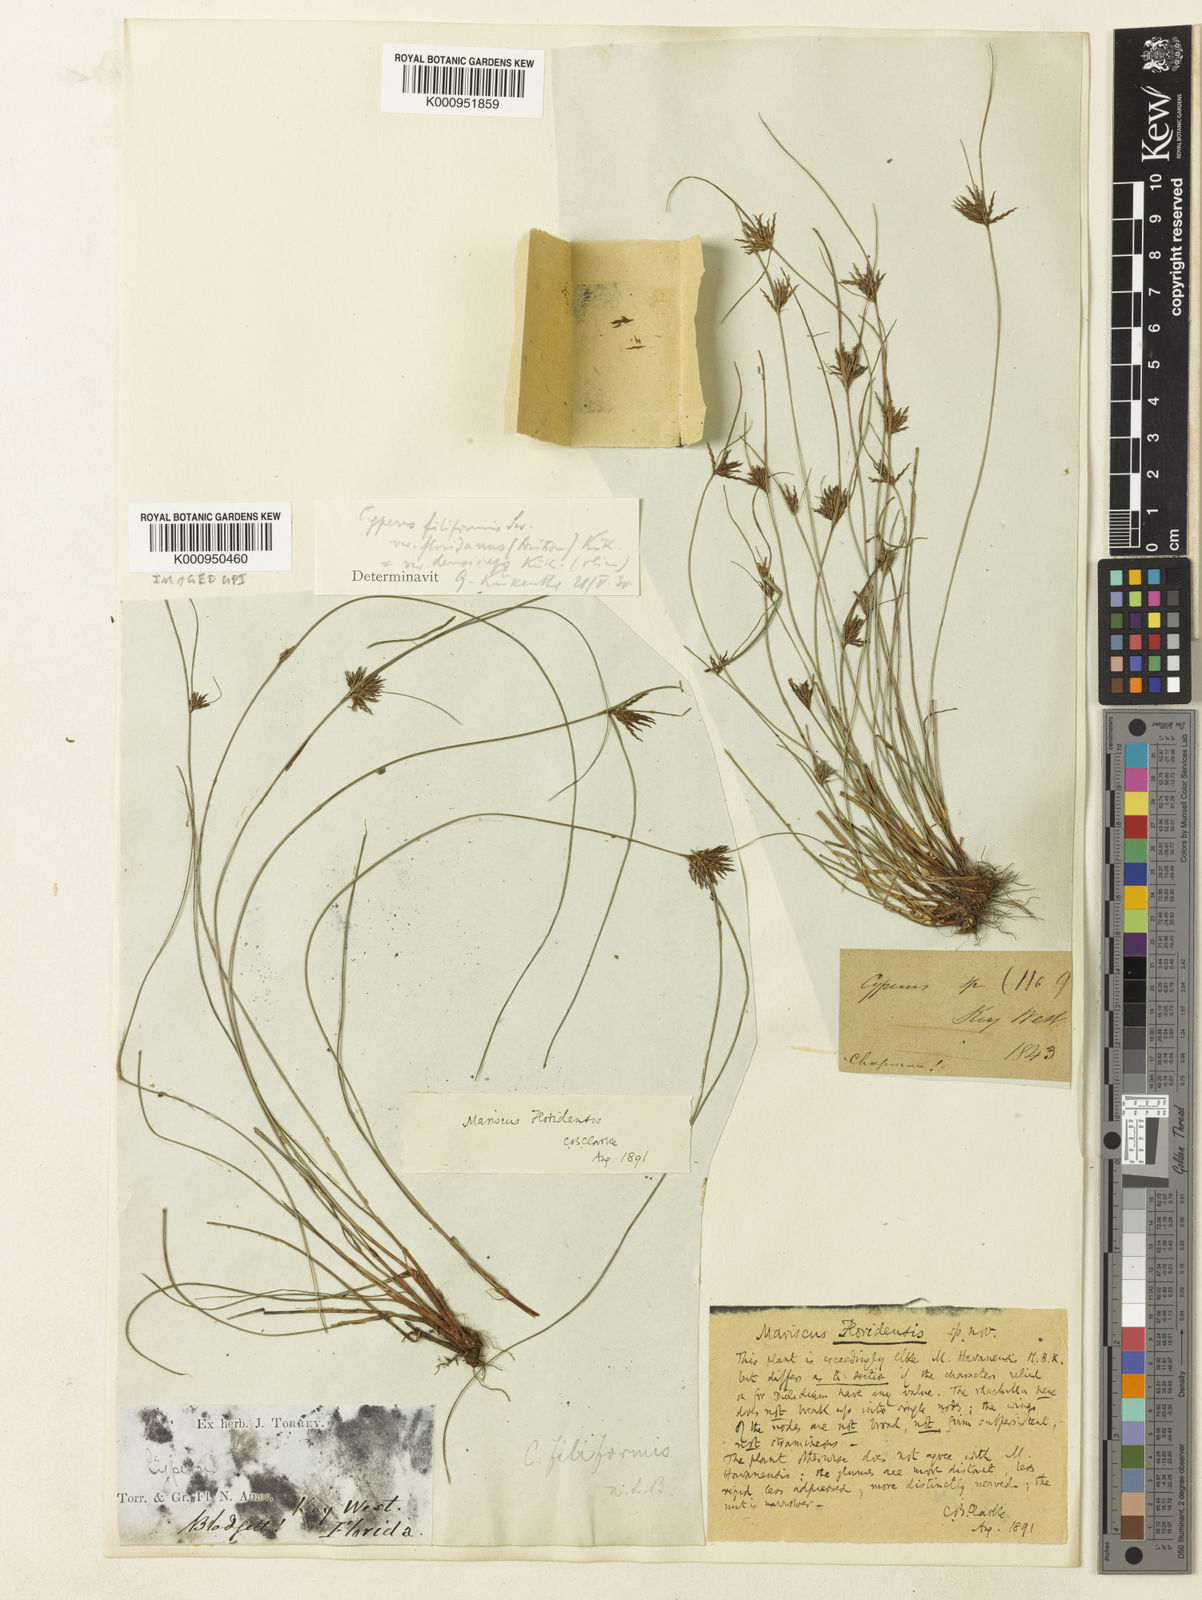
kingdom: Plantae
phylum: Tracheophyta
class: Liliopsida
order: Poales
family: Cyperaceae
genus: Cyperus
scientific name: Cyperus filiformis
